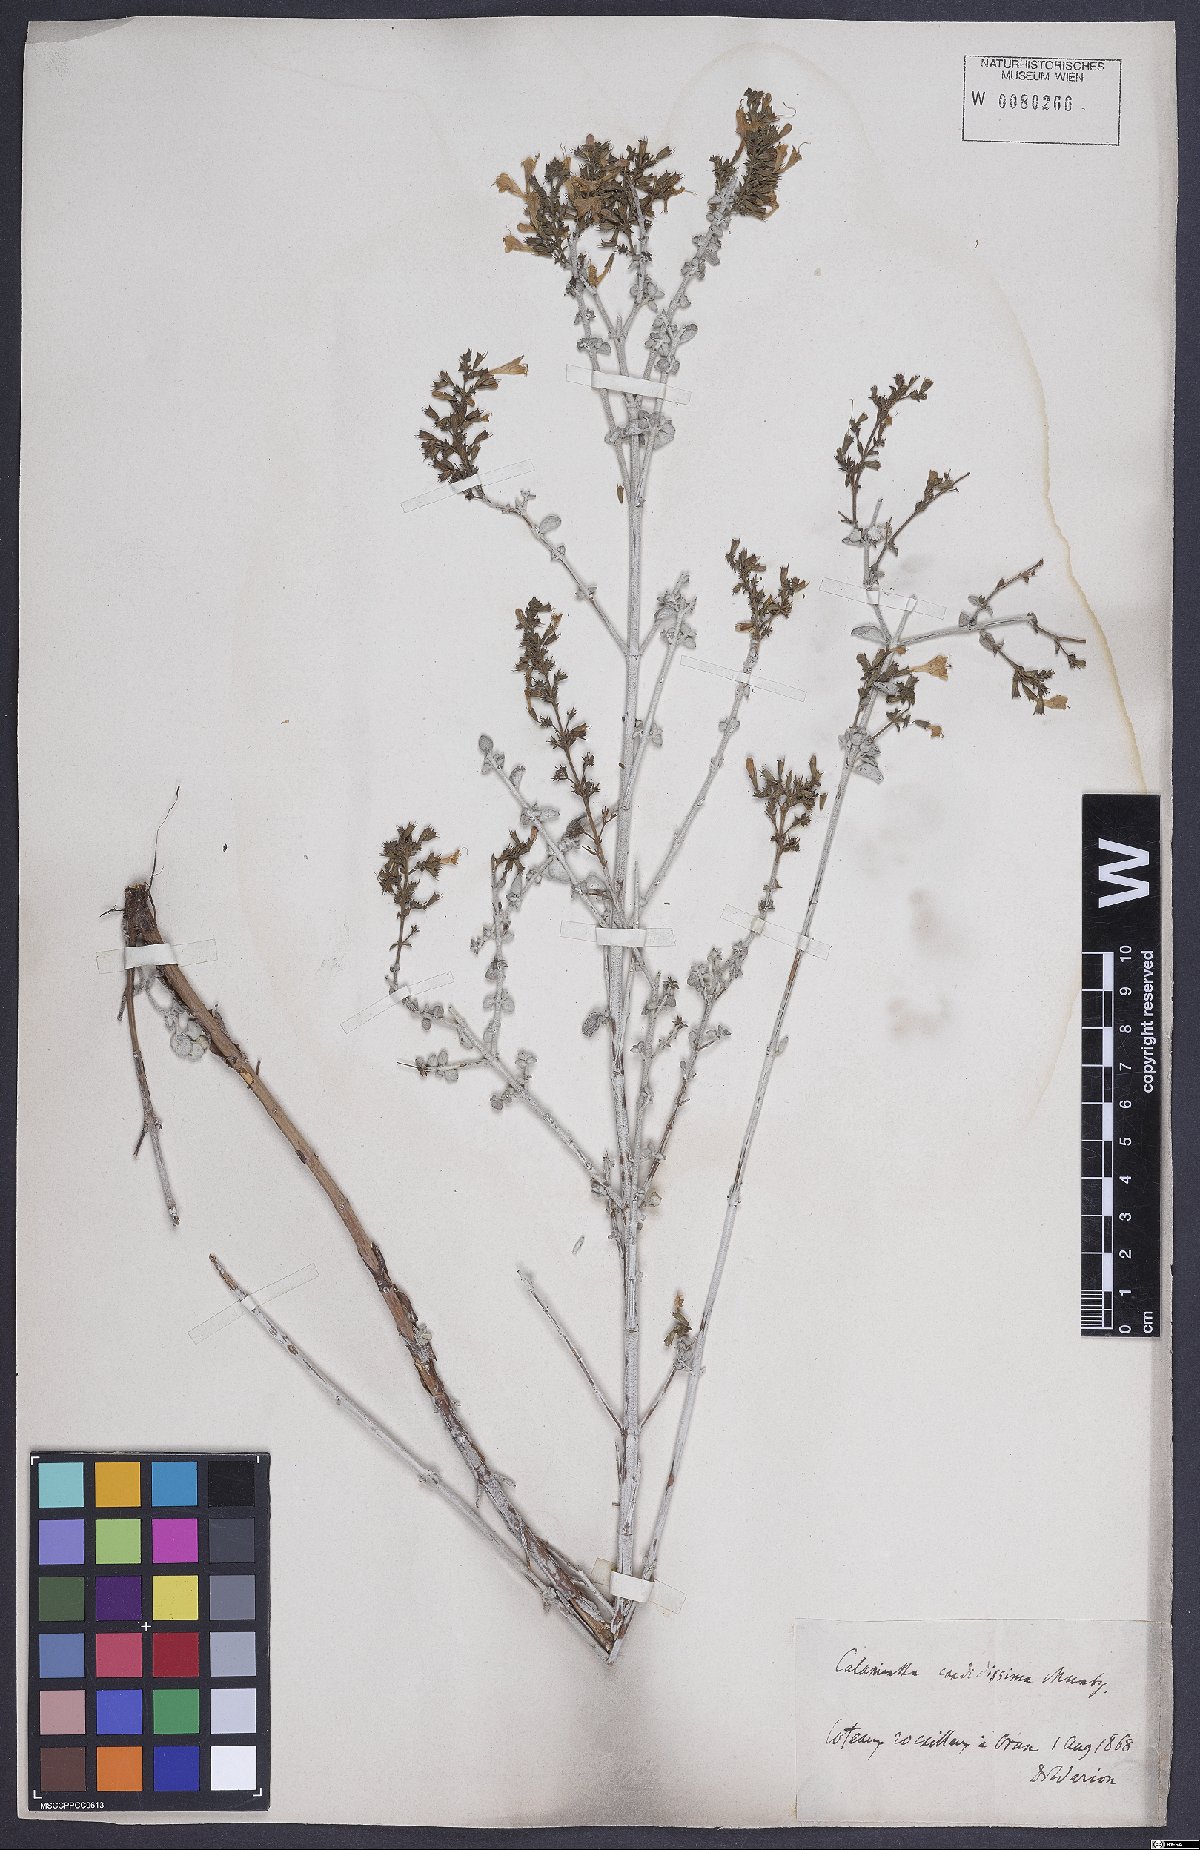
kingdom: Plantae
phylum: Tracheophyta
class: Magnoliopsida
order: Lamiales
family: Lamiaceae
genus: Calamintha
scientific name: Calamintha
